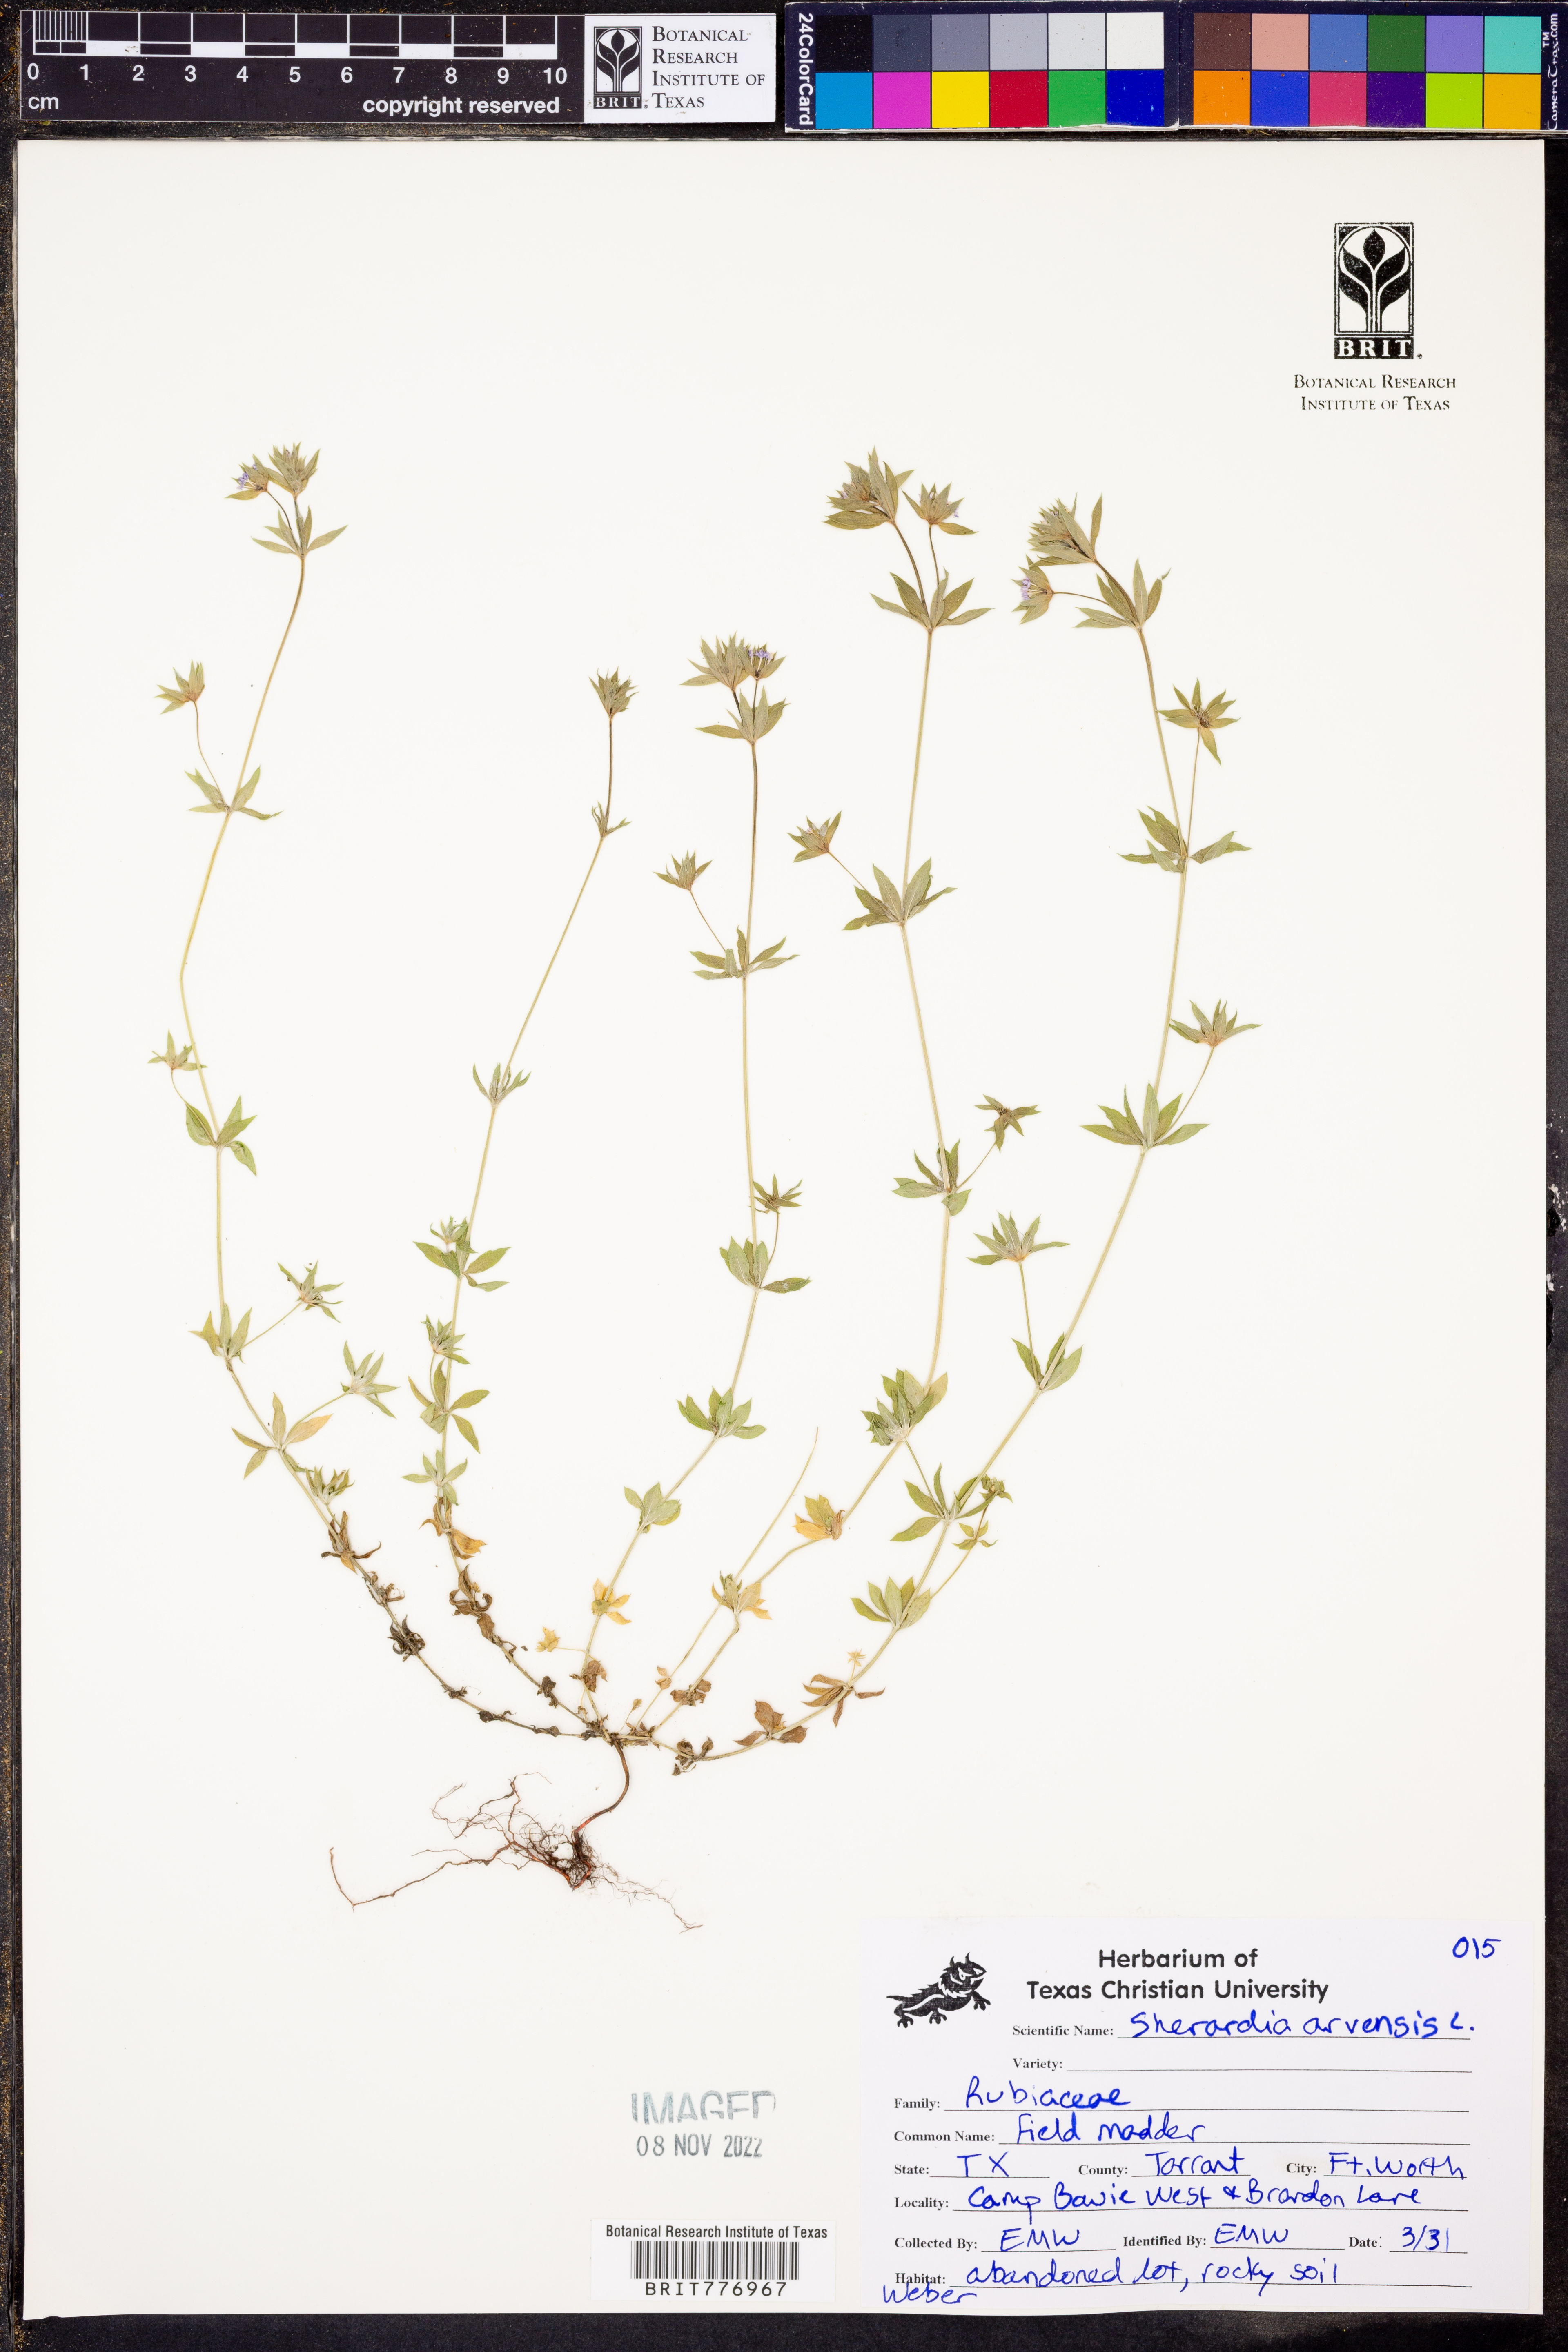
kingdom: Plantae
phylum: Tracheophyta
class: Magnoliopsida
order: Gentianales
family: Rubiaceae
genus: Sherardia
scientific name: Sherardia arvensis
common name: Field madder
